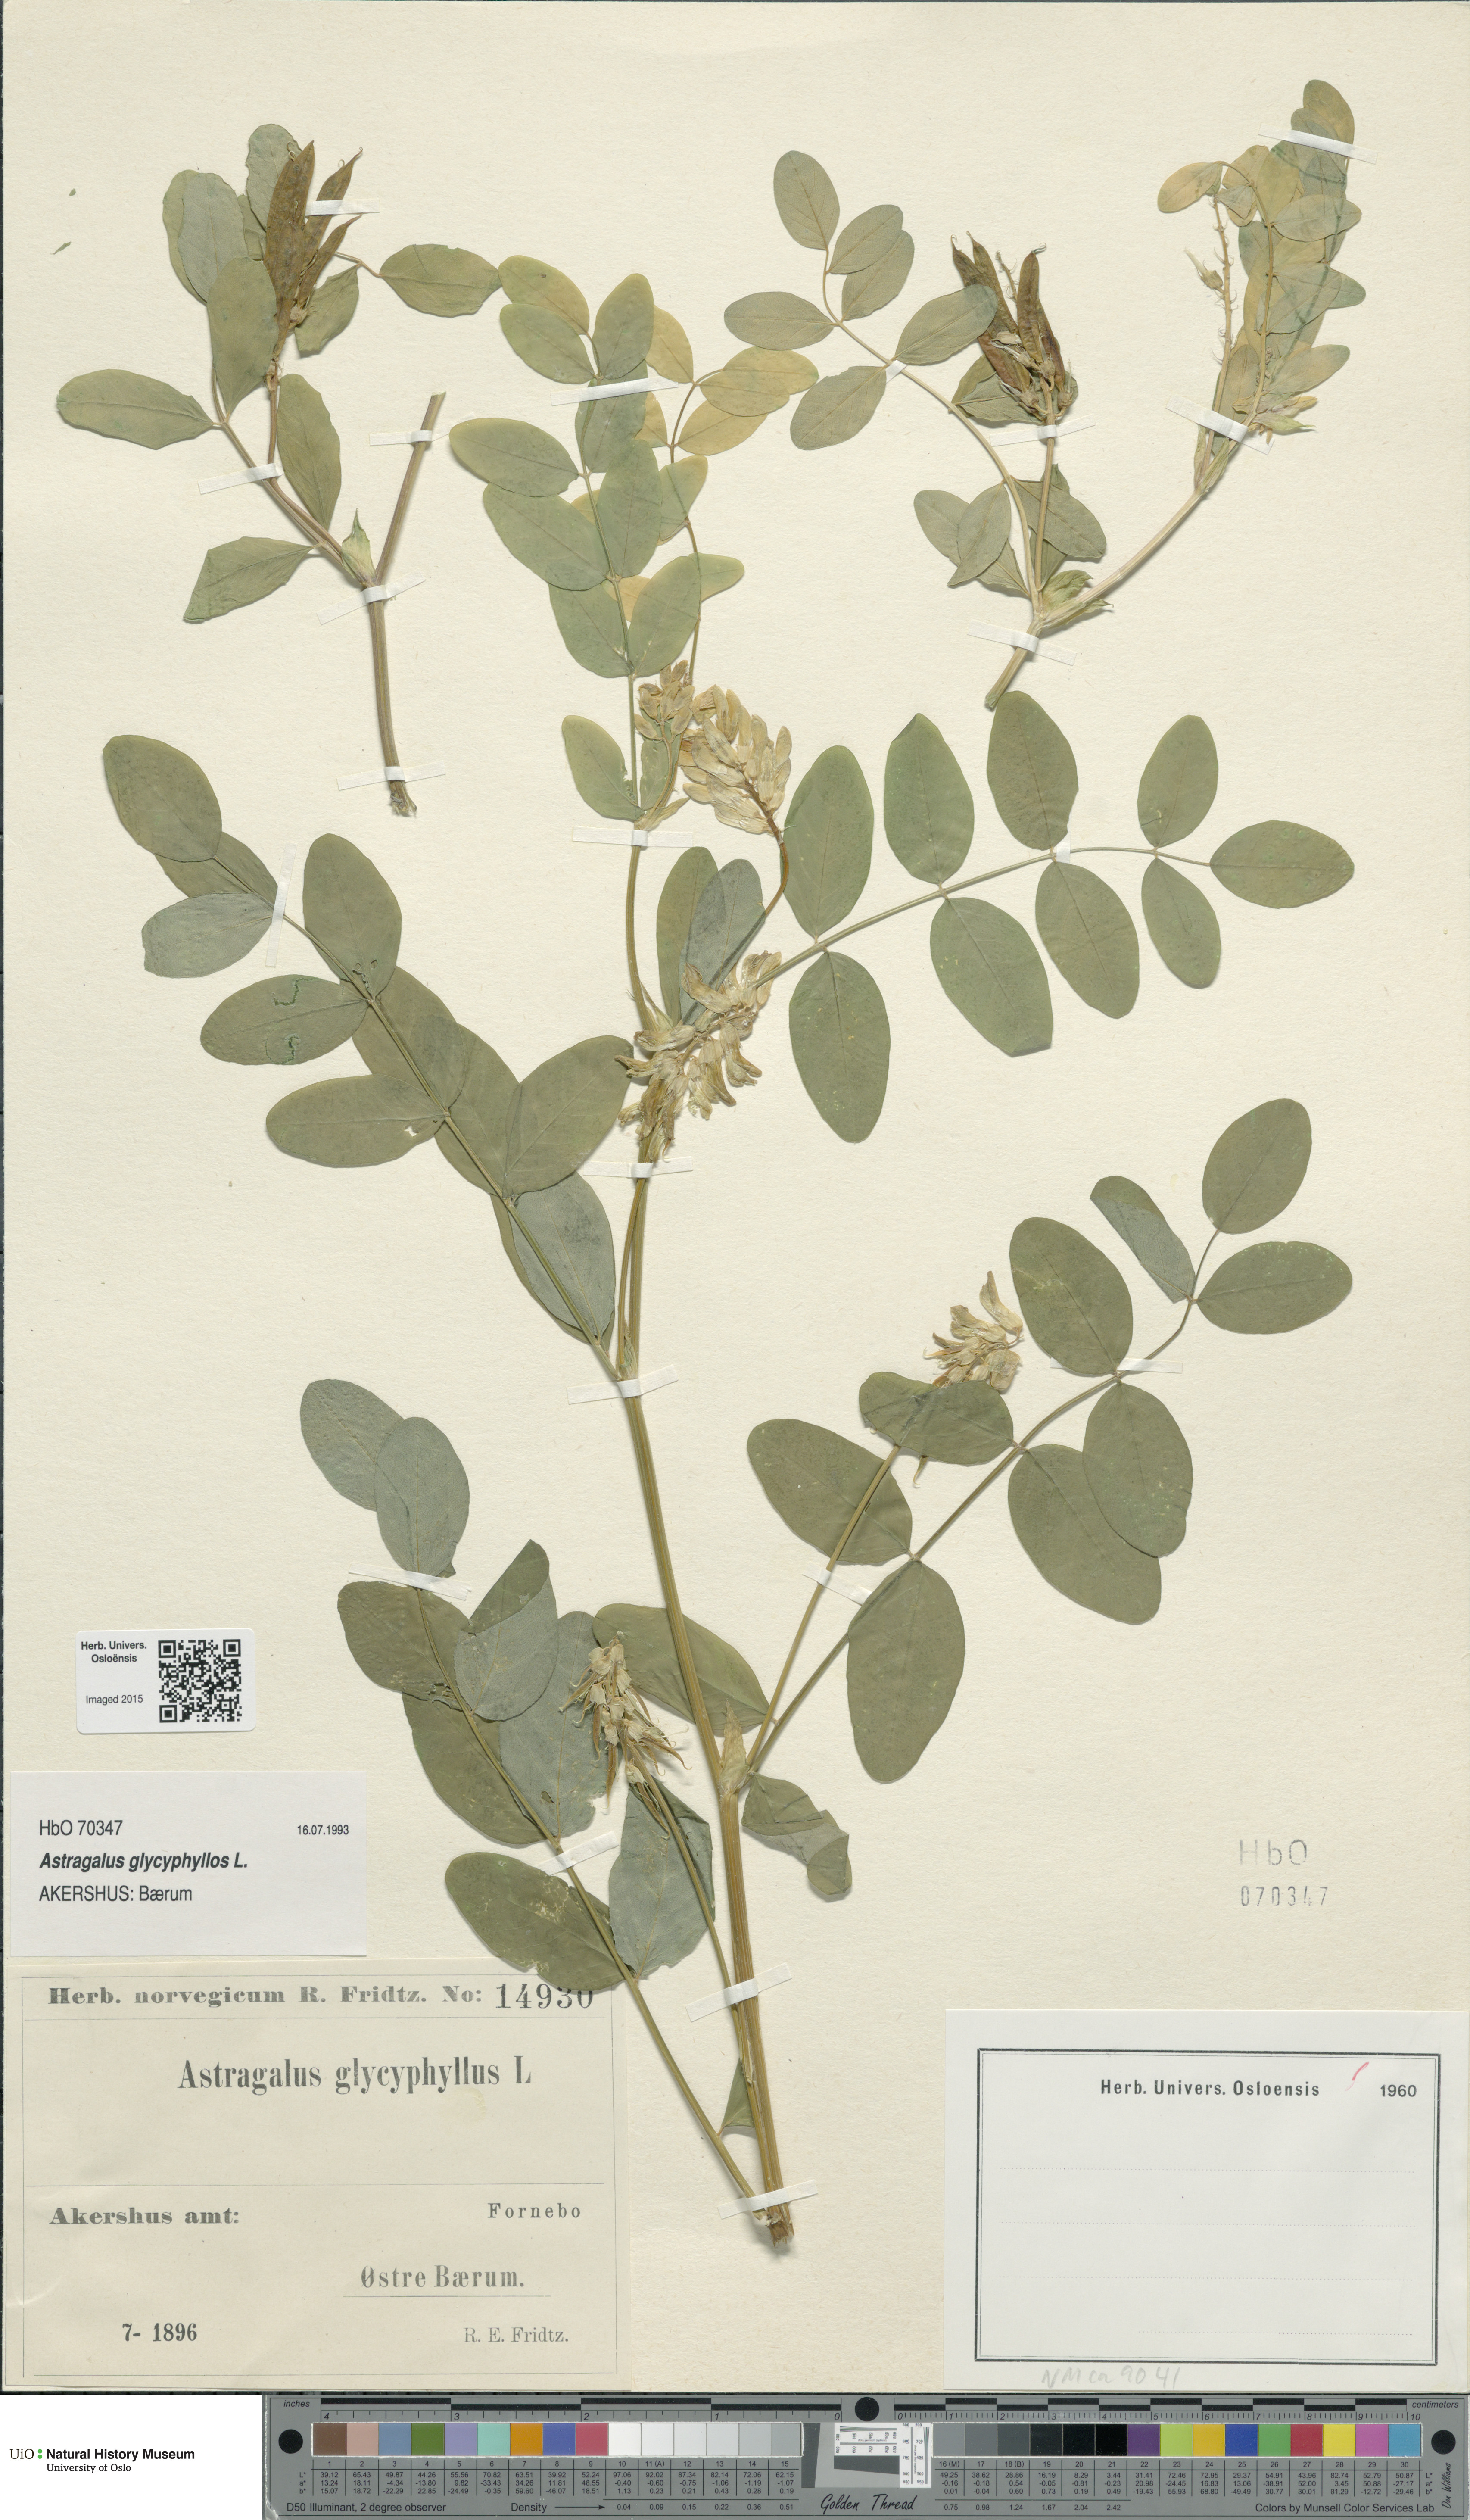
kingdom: Plantae
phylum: Tracheophyta
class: Magnoliopsida
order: Fabales
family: Fabaceae
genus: Astragalus
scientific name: Astragalus glycyphyllos
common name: Wild liquorice
